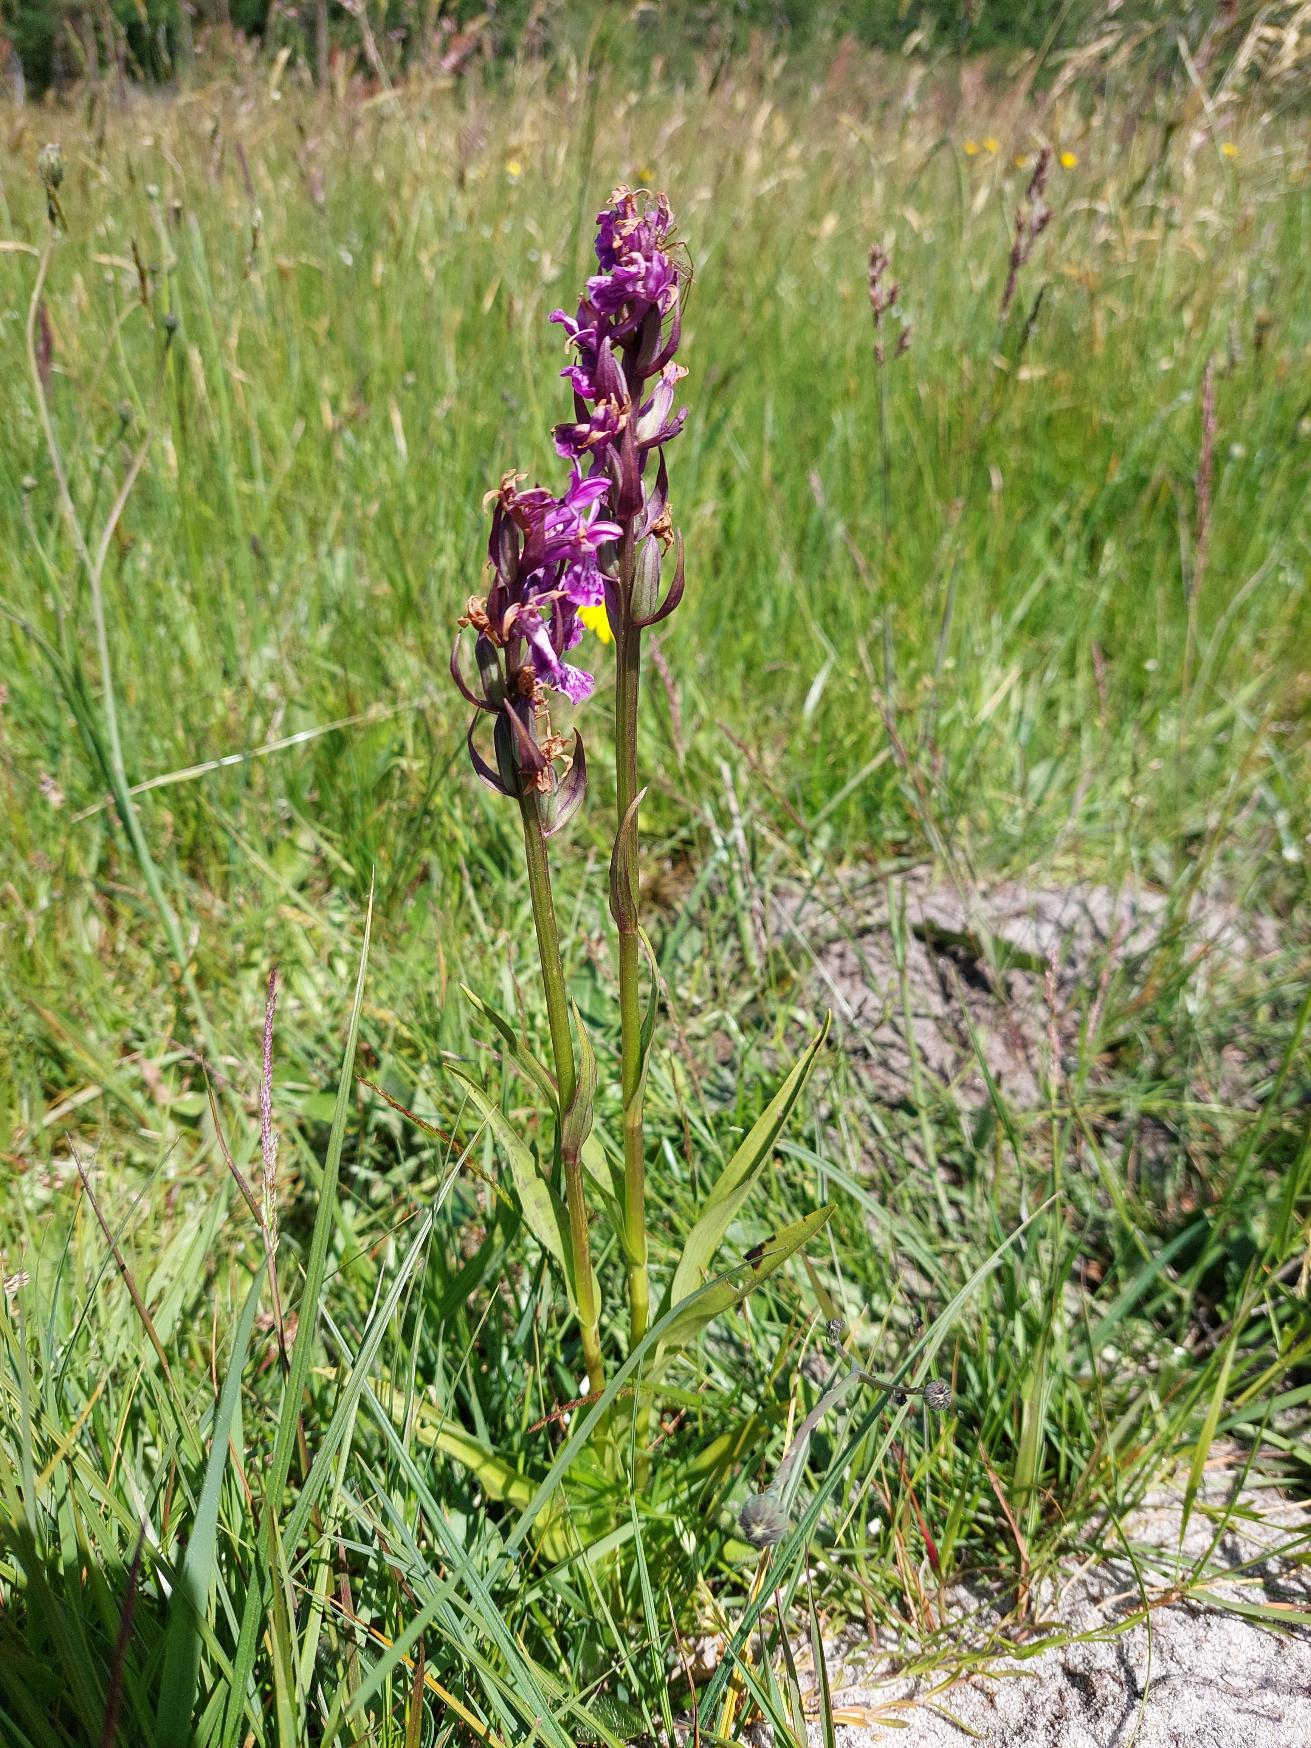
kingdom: Plantae
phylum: Tracheophyta
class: Liliopsida
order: Asparagales
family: Orchidaceae
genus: Dactylorhiza
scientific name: Dactylorhiza majalis
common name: Maj-gøgeurt
